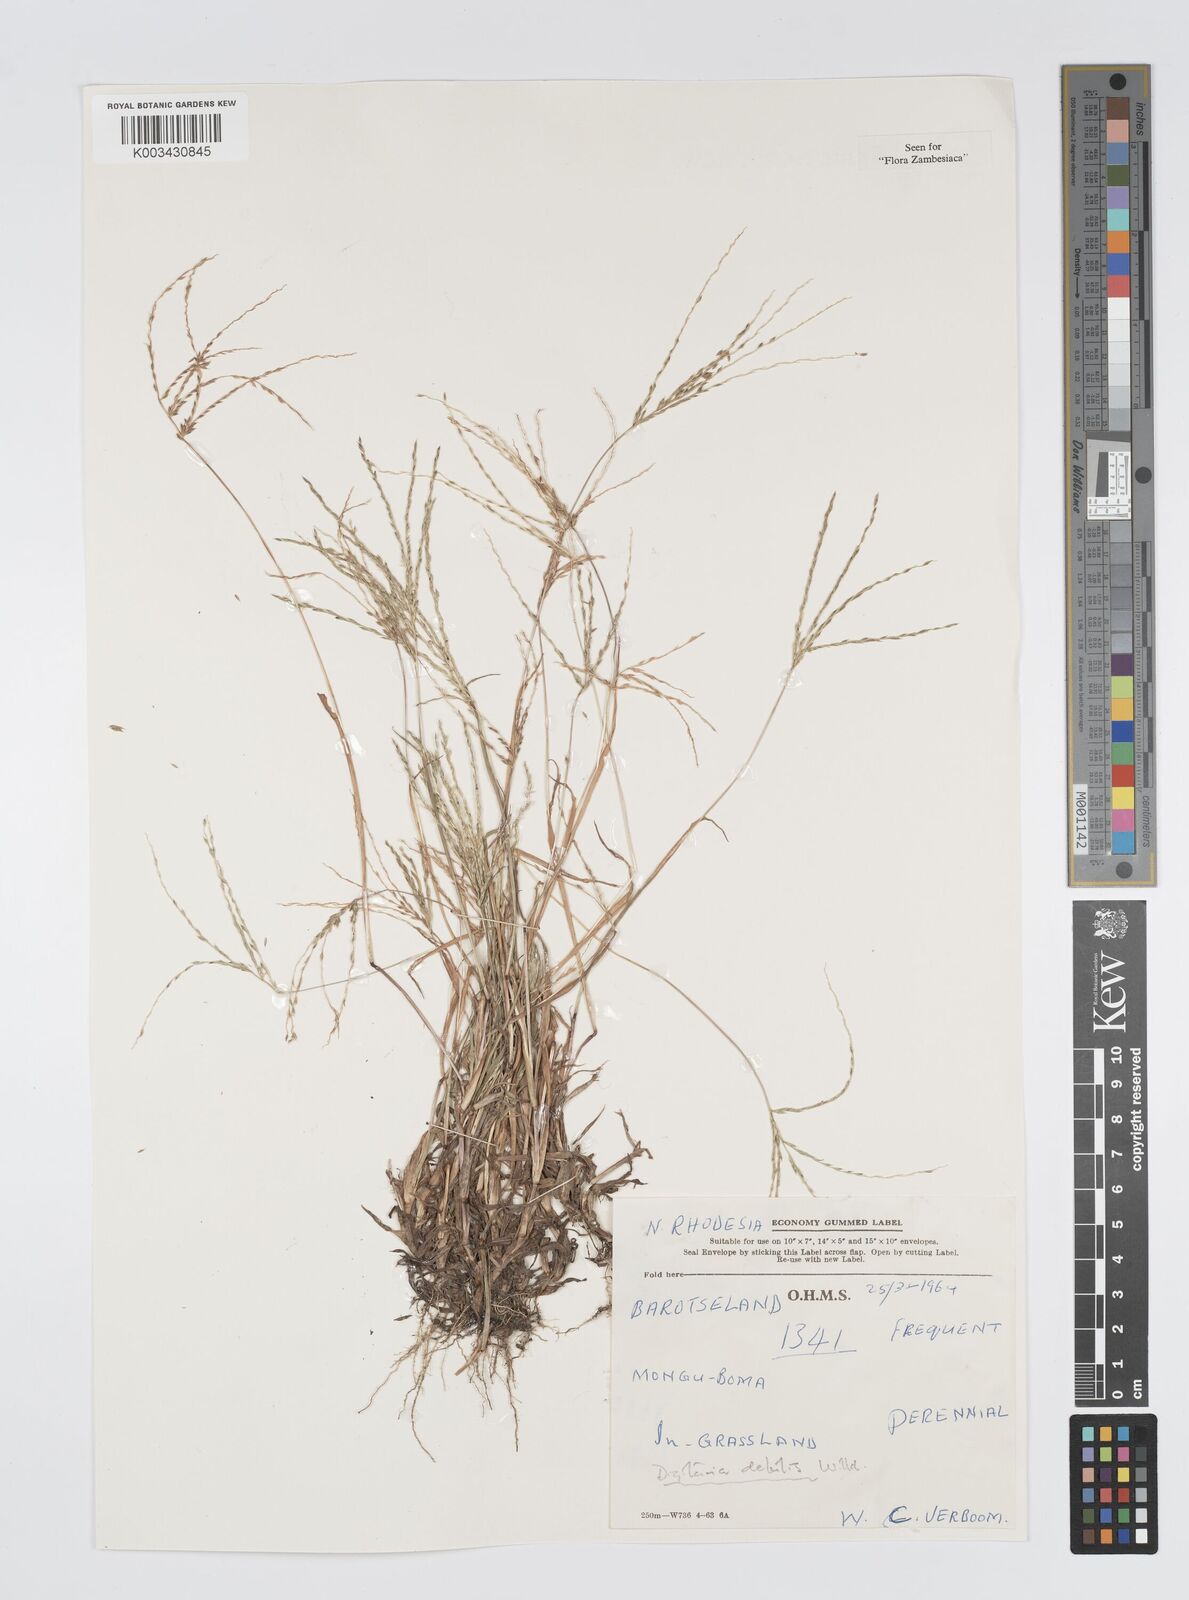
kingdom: Plantae
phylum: Tracheophyta
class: Liliopsida
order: Poales
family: Poaceae
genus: Digitaria
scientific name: Digitaria debilis
